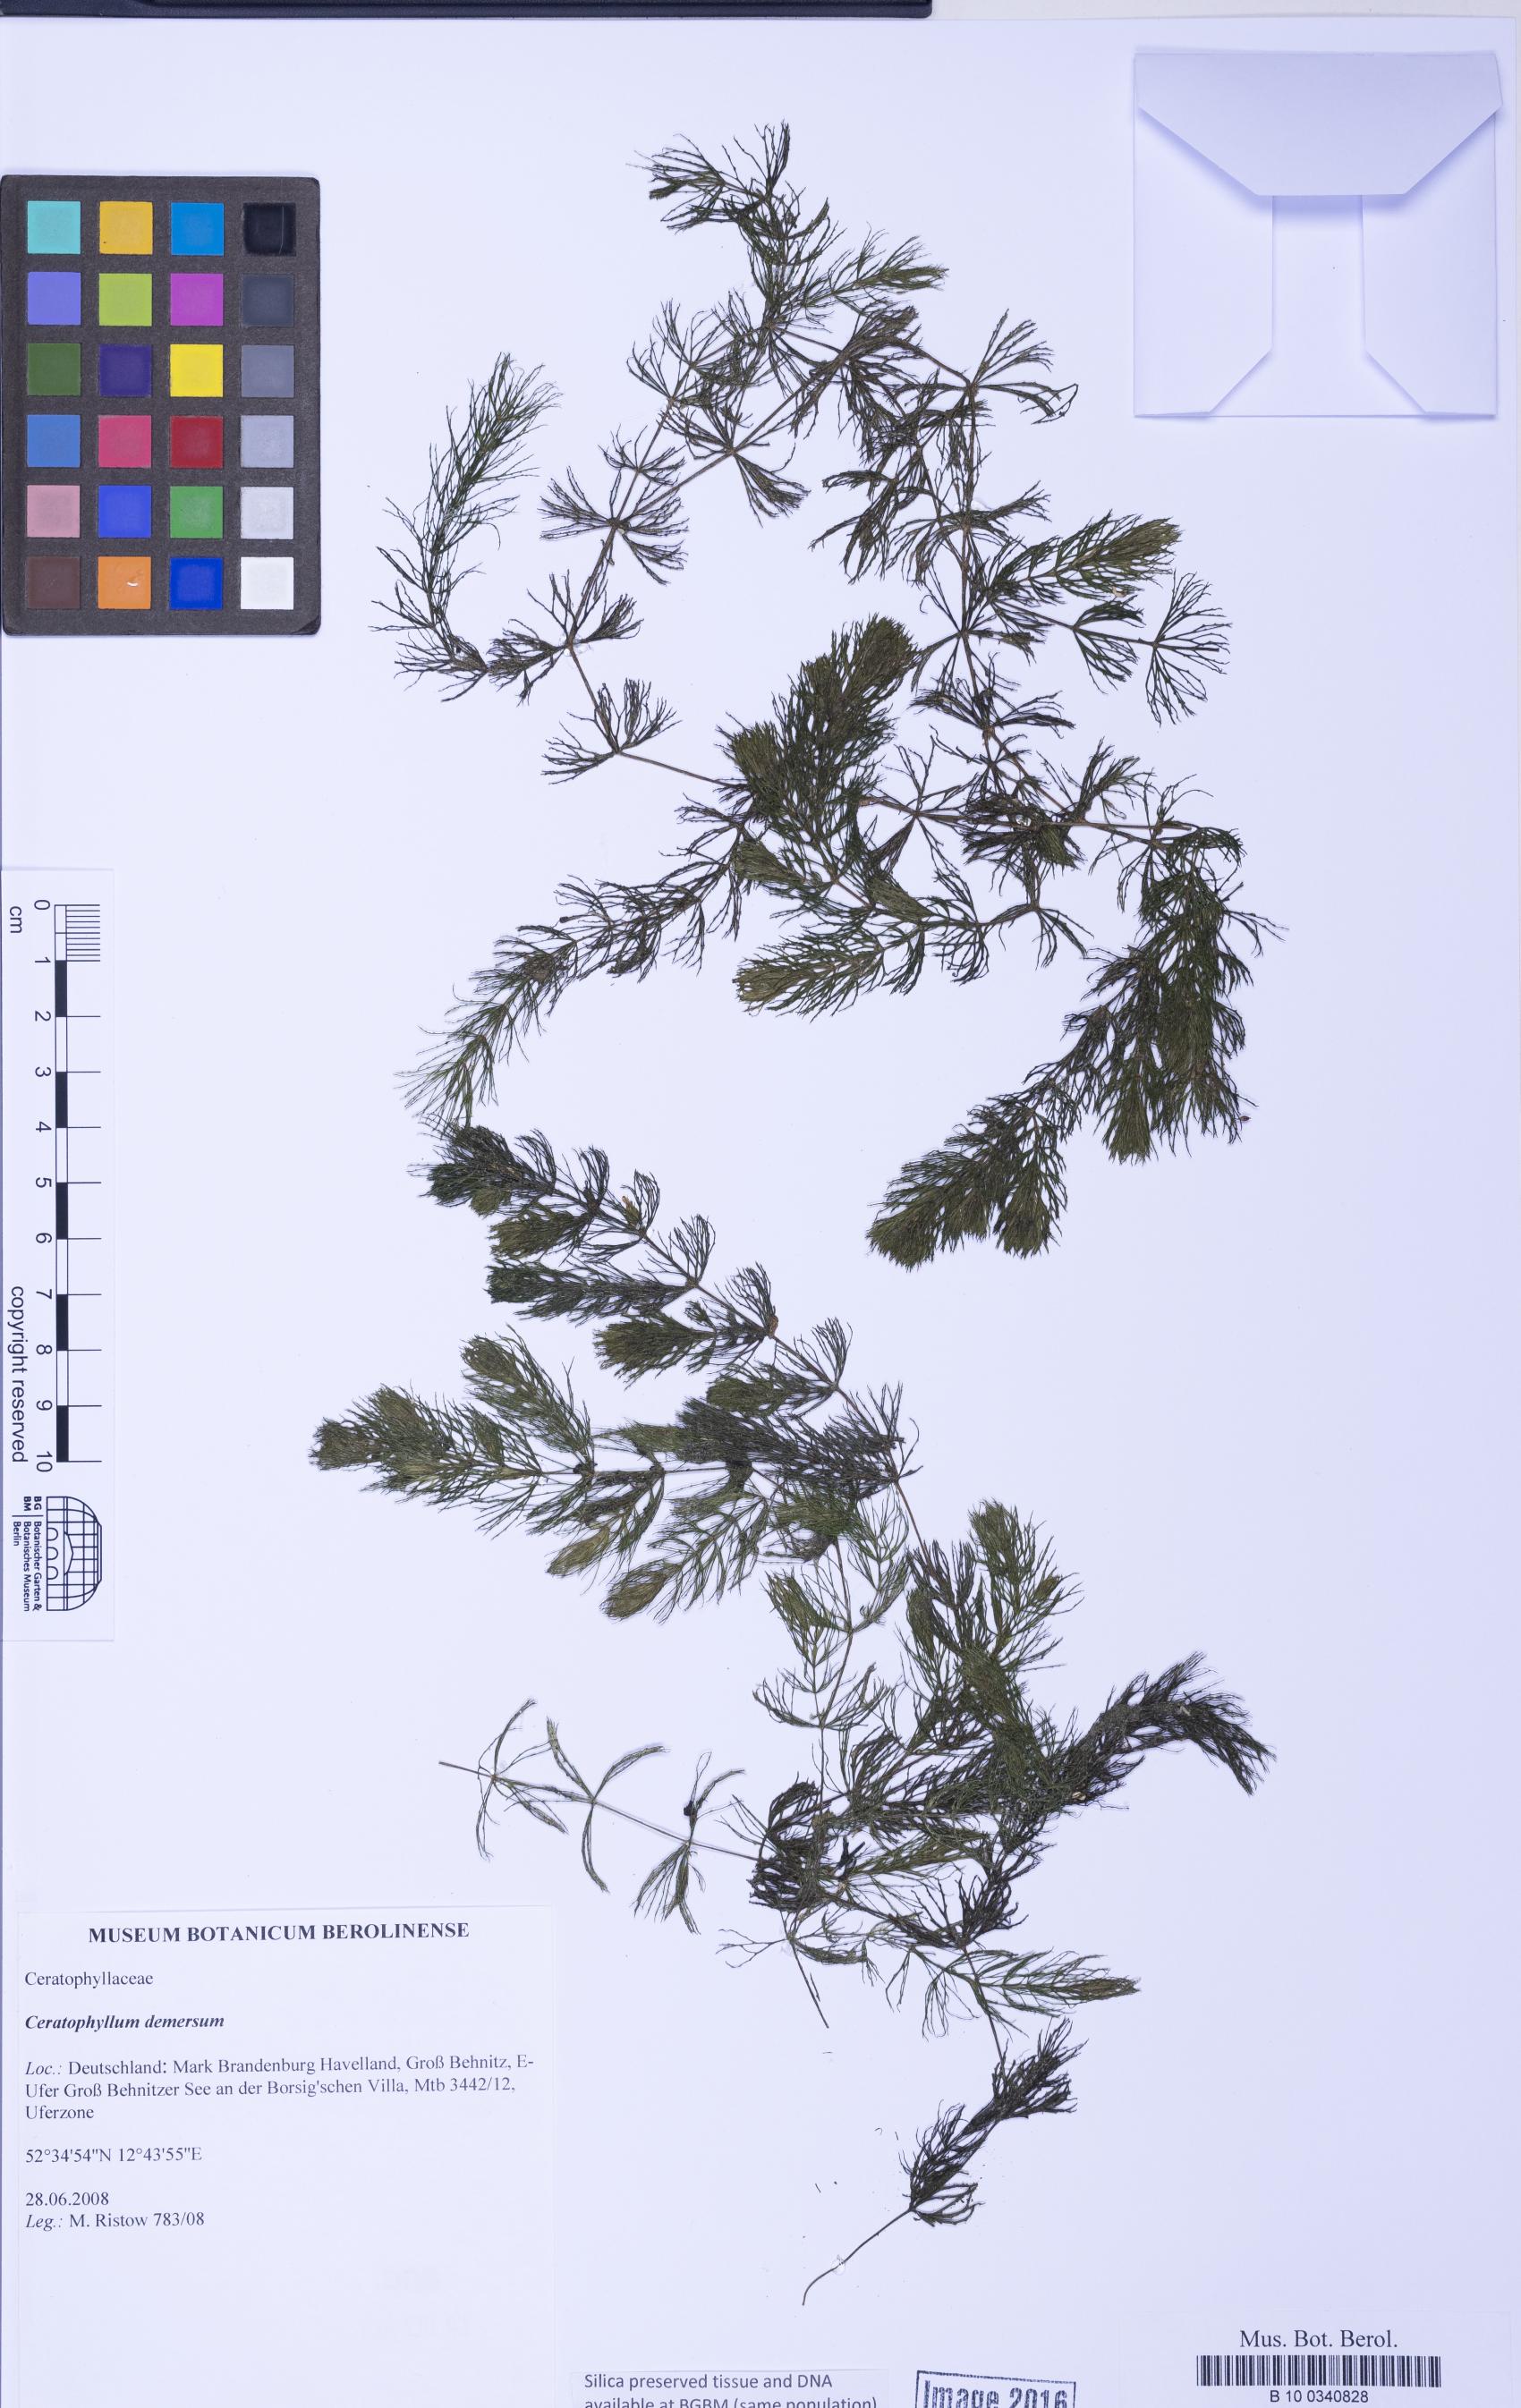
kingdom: Plantae
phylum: Tracheophyta
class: Magnoliopsida
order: Ceratophyllales
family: Ceratophyllaceae
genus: Ceratophyllum
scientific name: Ceratophyllum demersum
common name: Rigid hornwort
